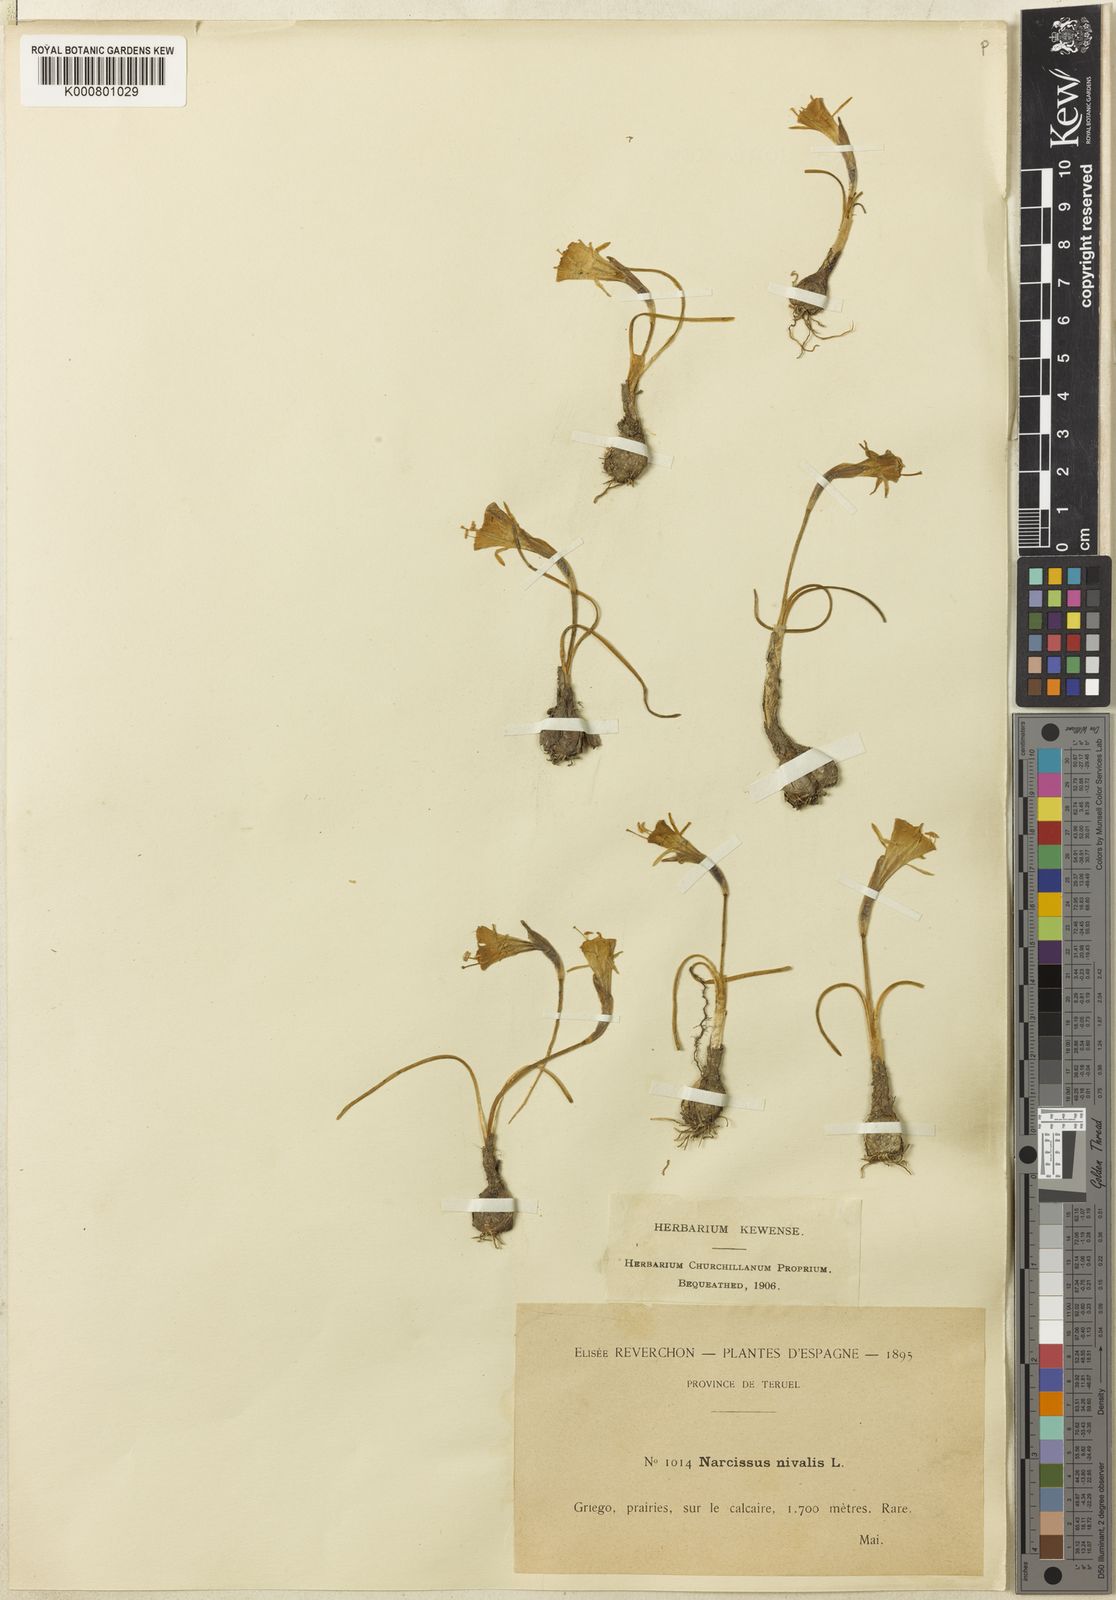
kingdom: Plantae
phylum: Tracheophyta
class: Liliopsida
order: Asparagales
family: Amaryllidaceae
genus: Narcissus
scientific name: Narcissus bulbocodium
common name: Hoop-petticoat daffodil
